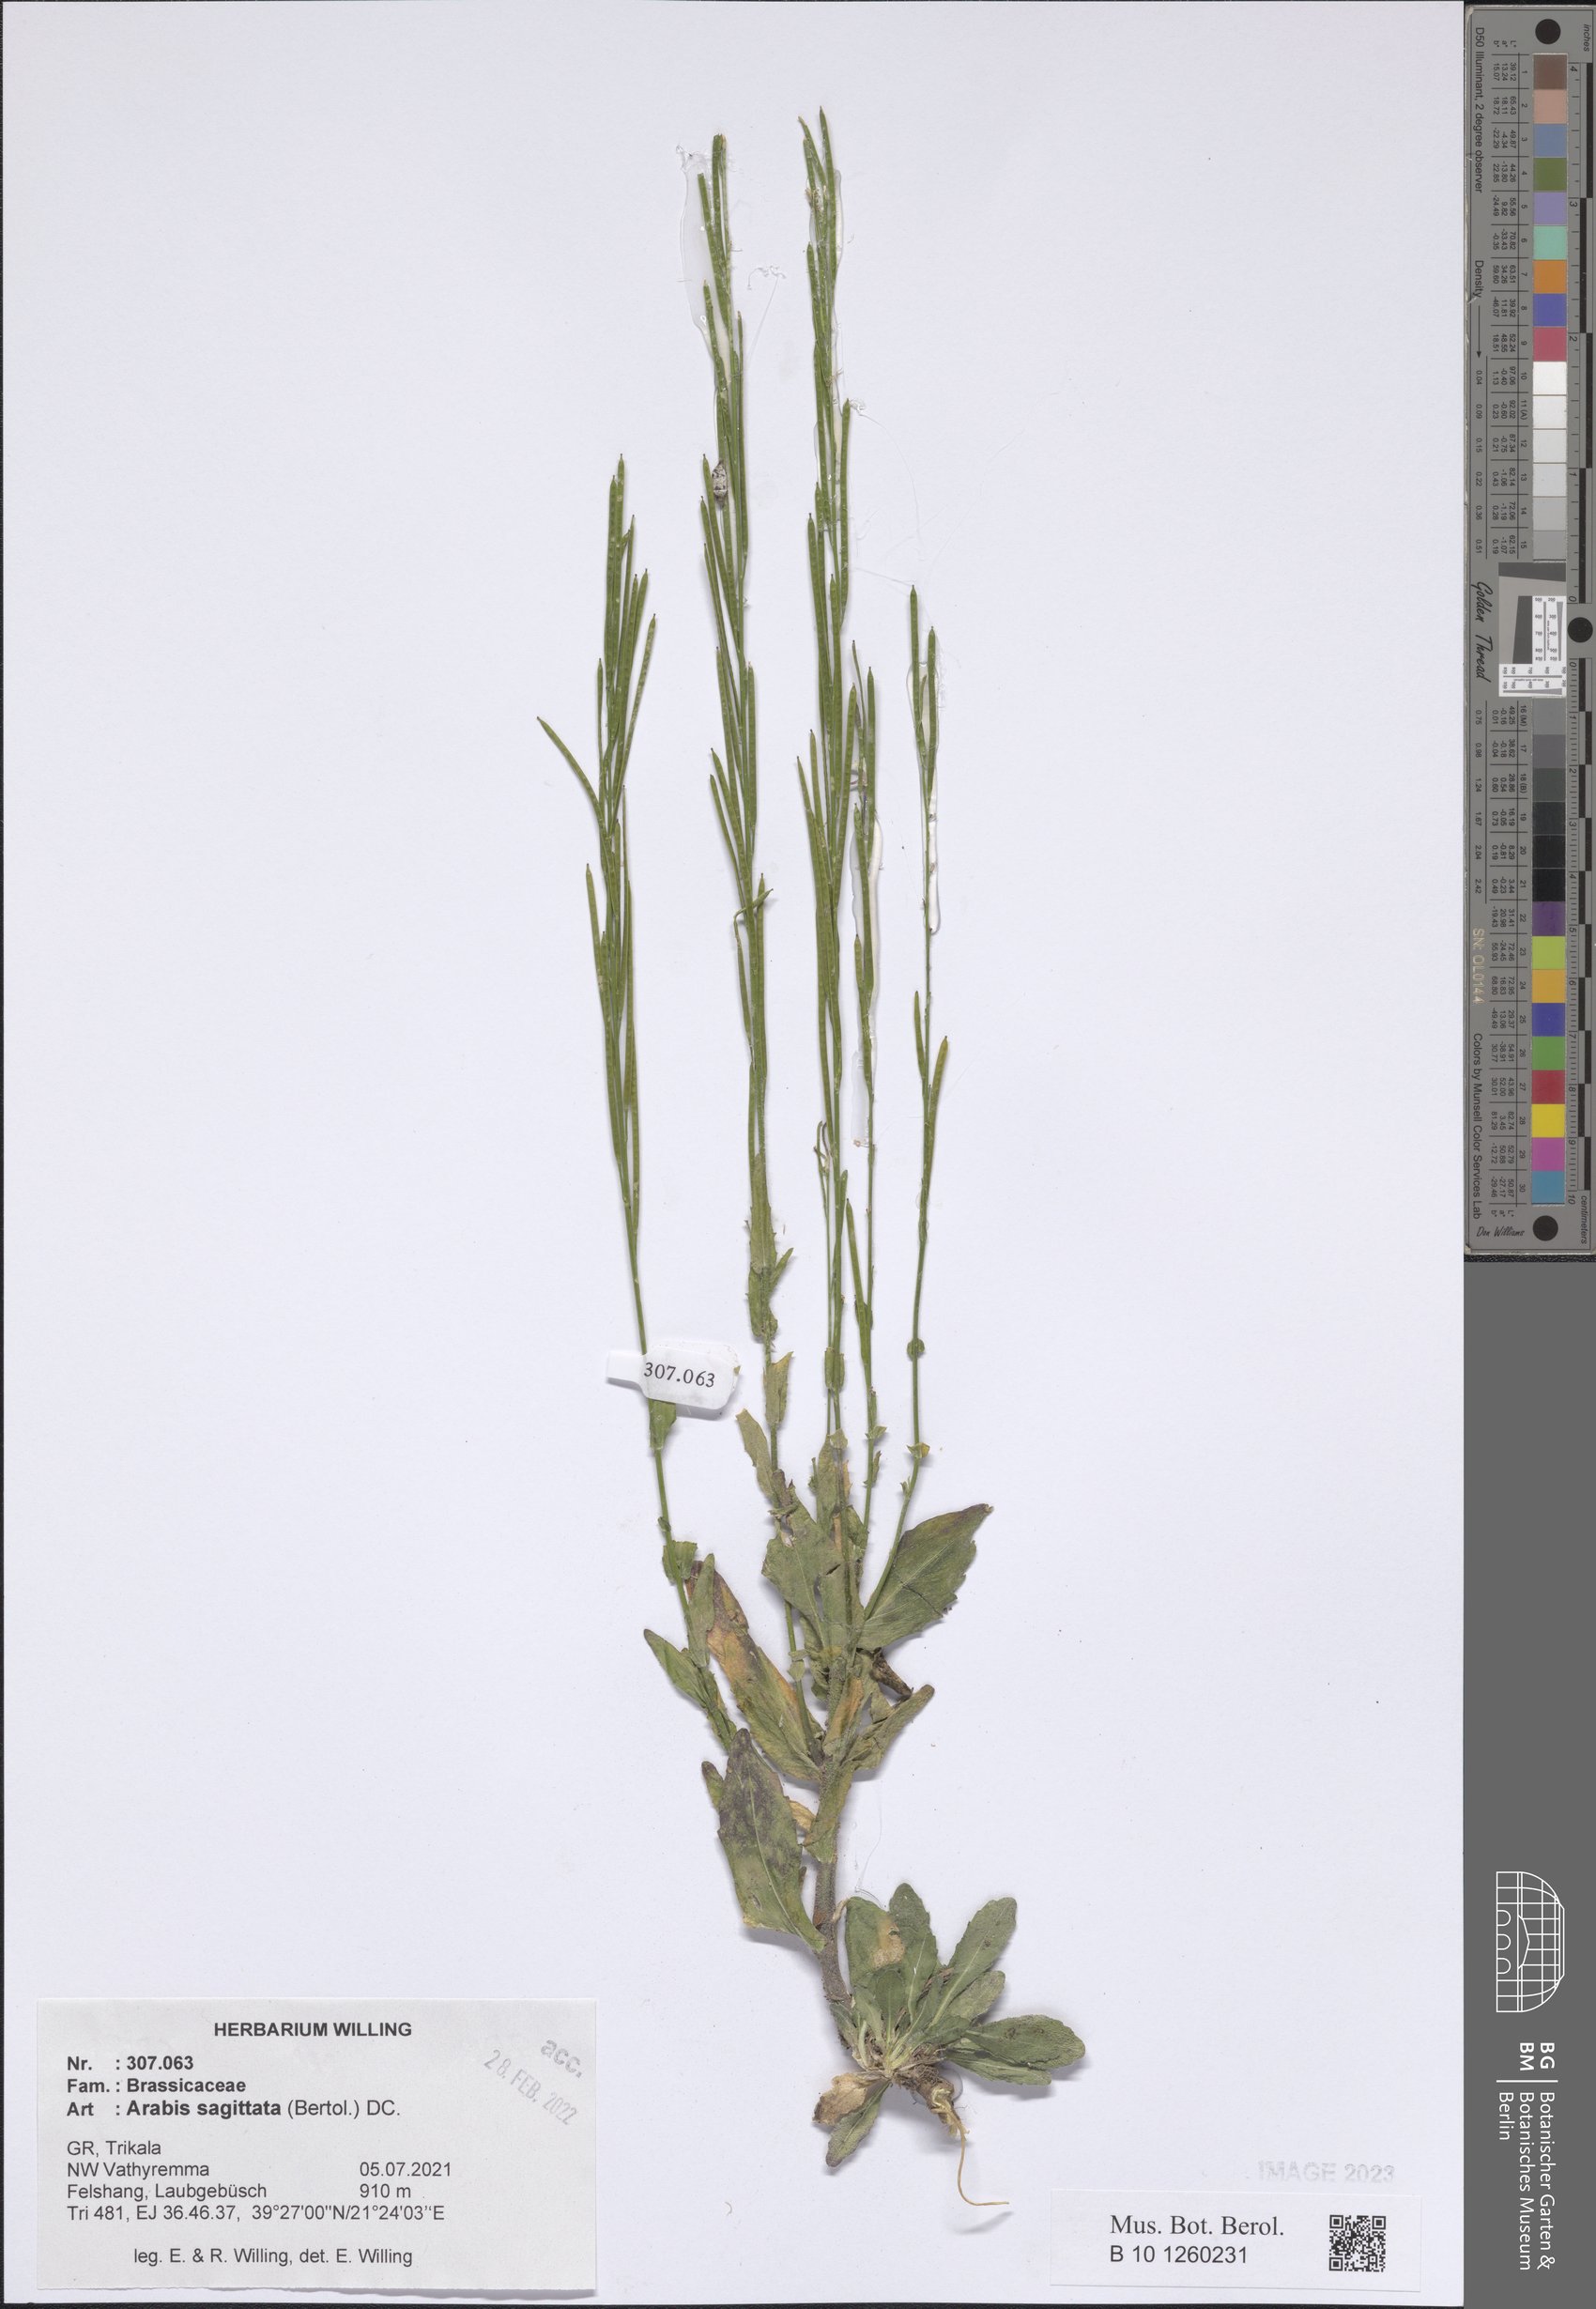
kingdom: Plantae
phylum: Tracheophyta
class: Magnoliopsida
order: Brassicales
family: Brassicaceae
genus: Arabis
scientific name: Arabis sagittata
